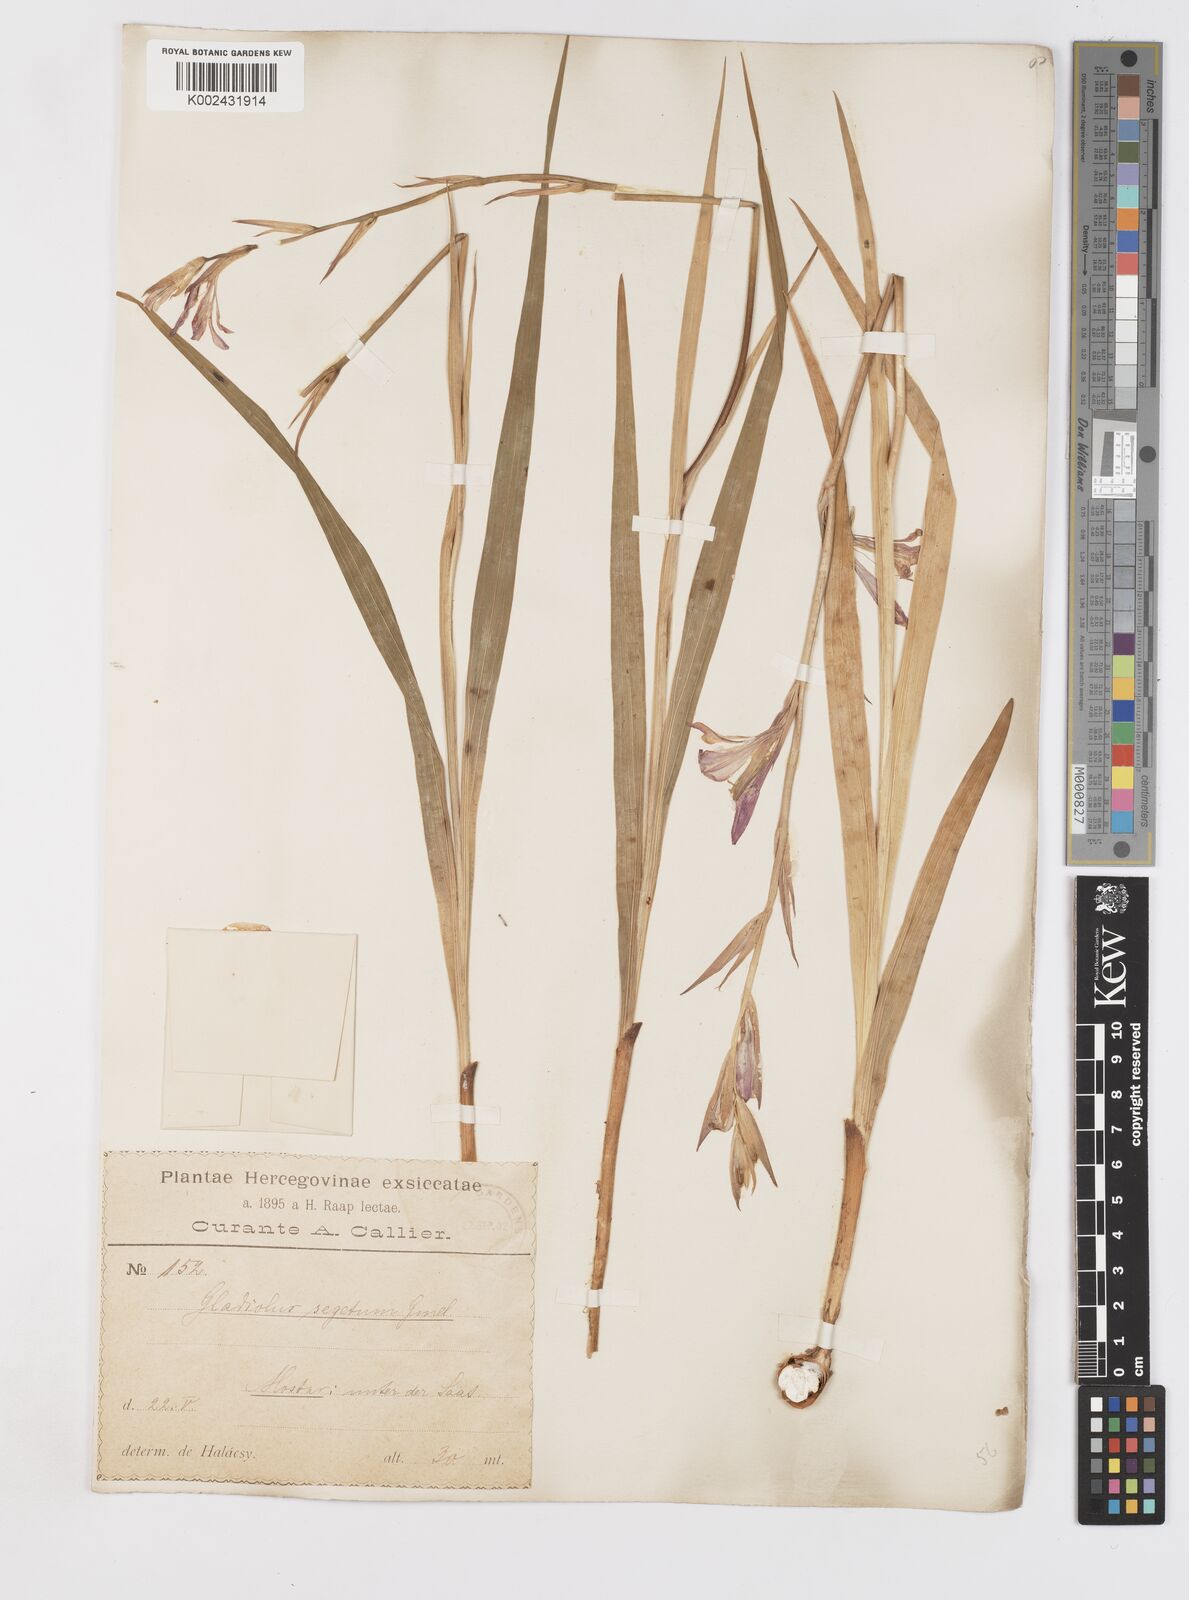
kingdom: Plantae
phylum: Tracheophyta
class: Liliopsida
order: Asparagales
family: Iridaceae
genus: Gladiolus
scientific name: Gladiolus italicus
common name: Field gladiolus
